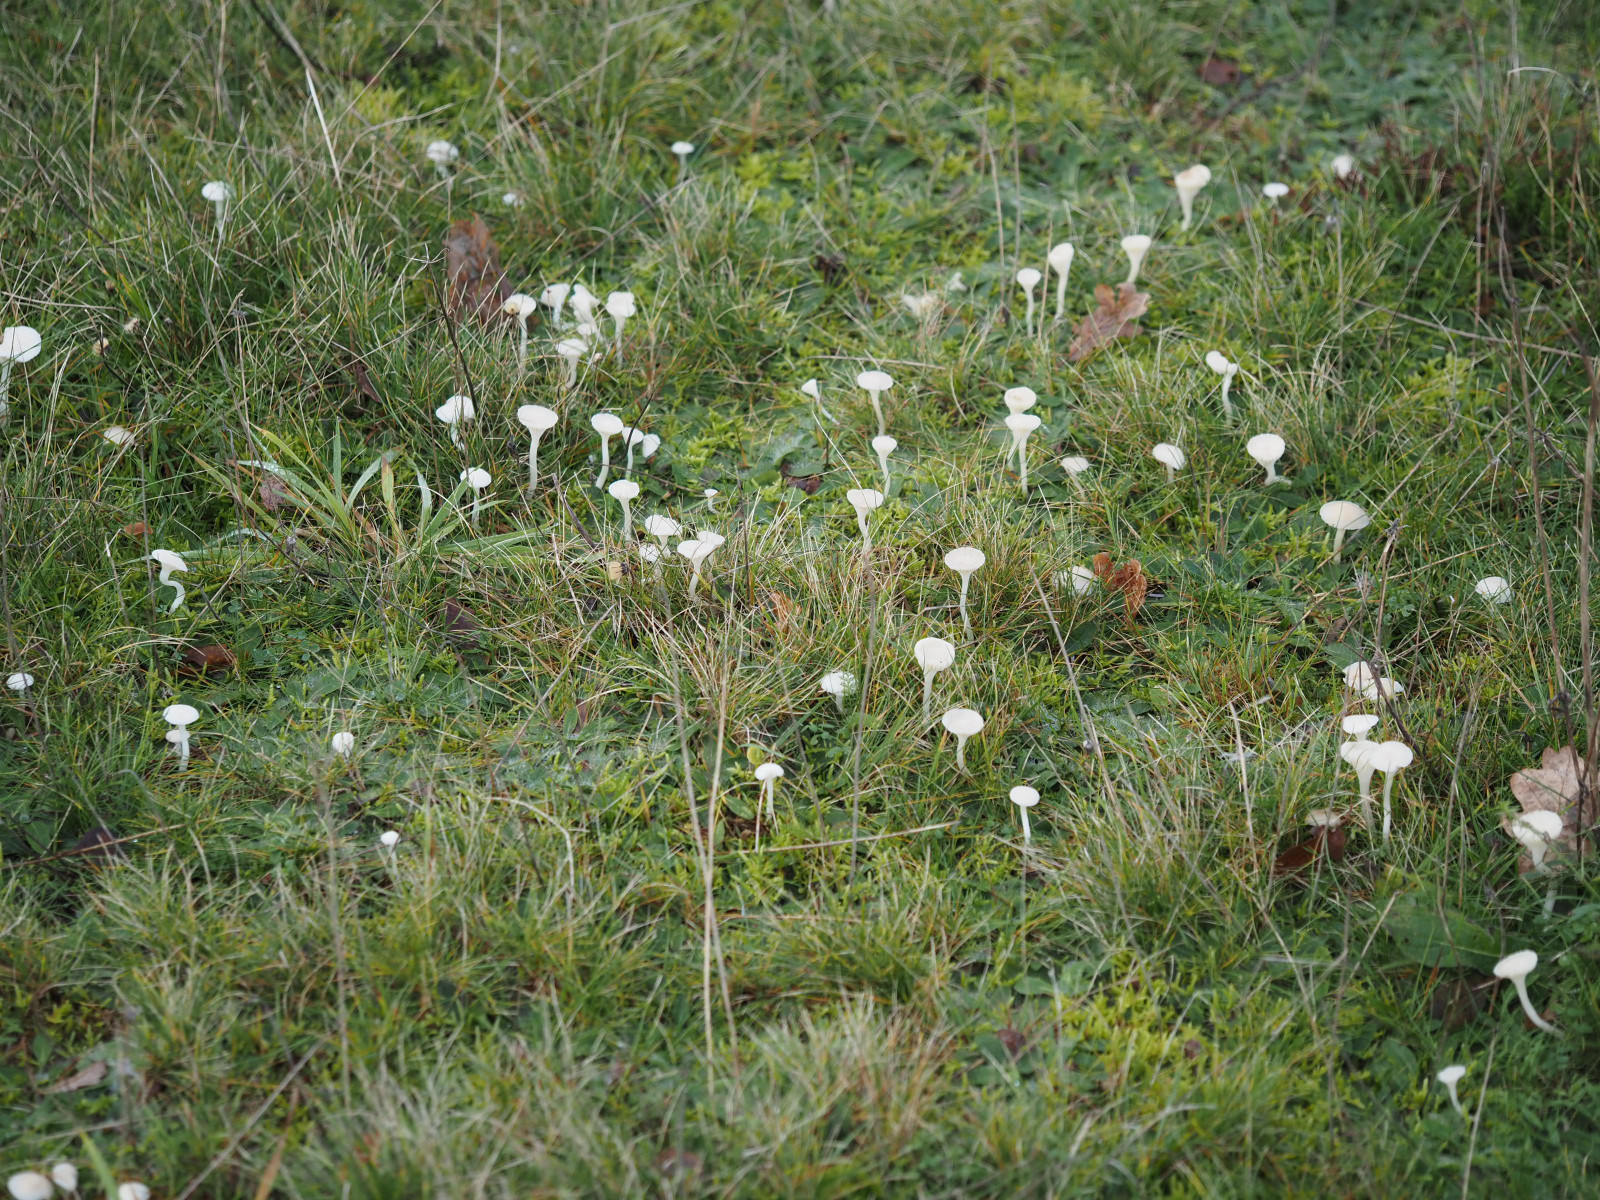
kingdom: Fungi
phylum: Basidiomycota
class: Agaricomycetes
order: Agaricales
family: Hygrophoraceae
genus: Cuphophyllus
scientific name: Cuphophyllus virgineus
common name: snehvid vokshat
